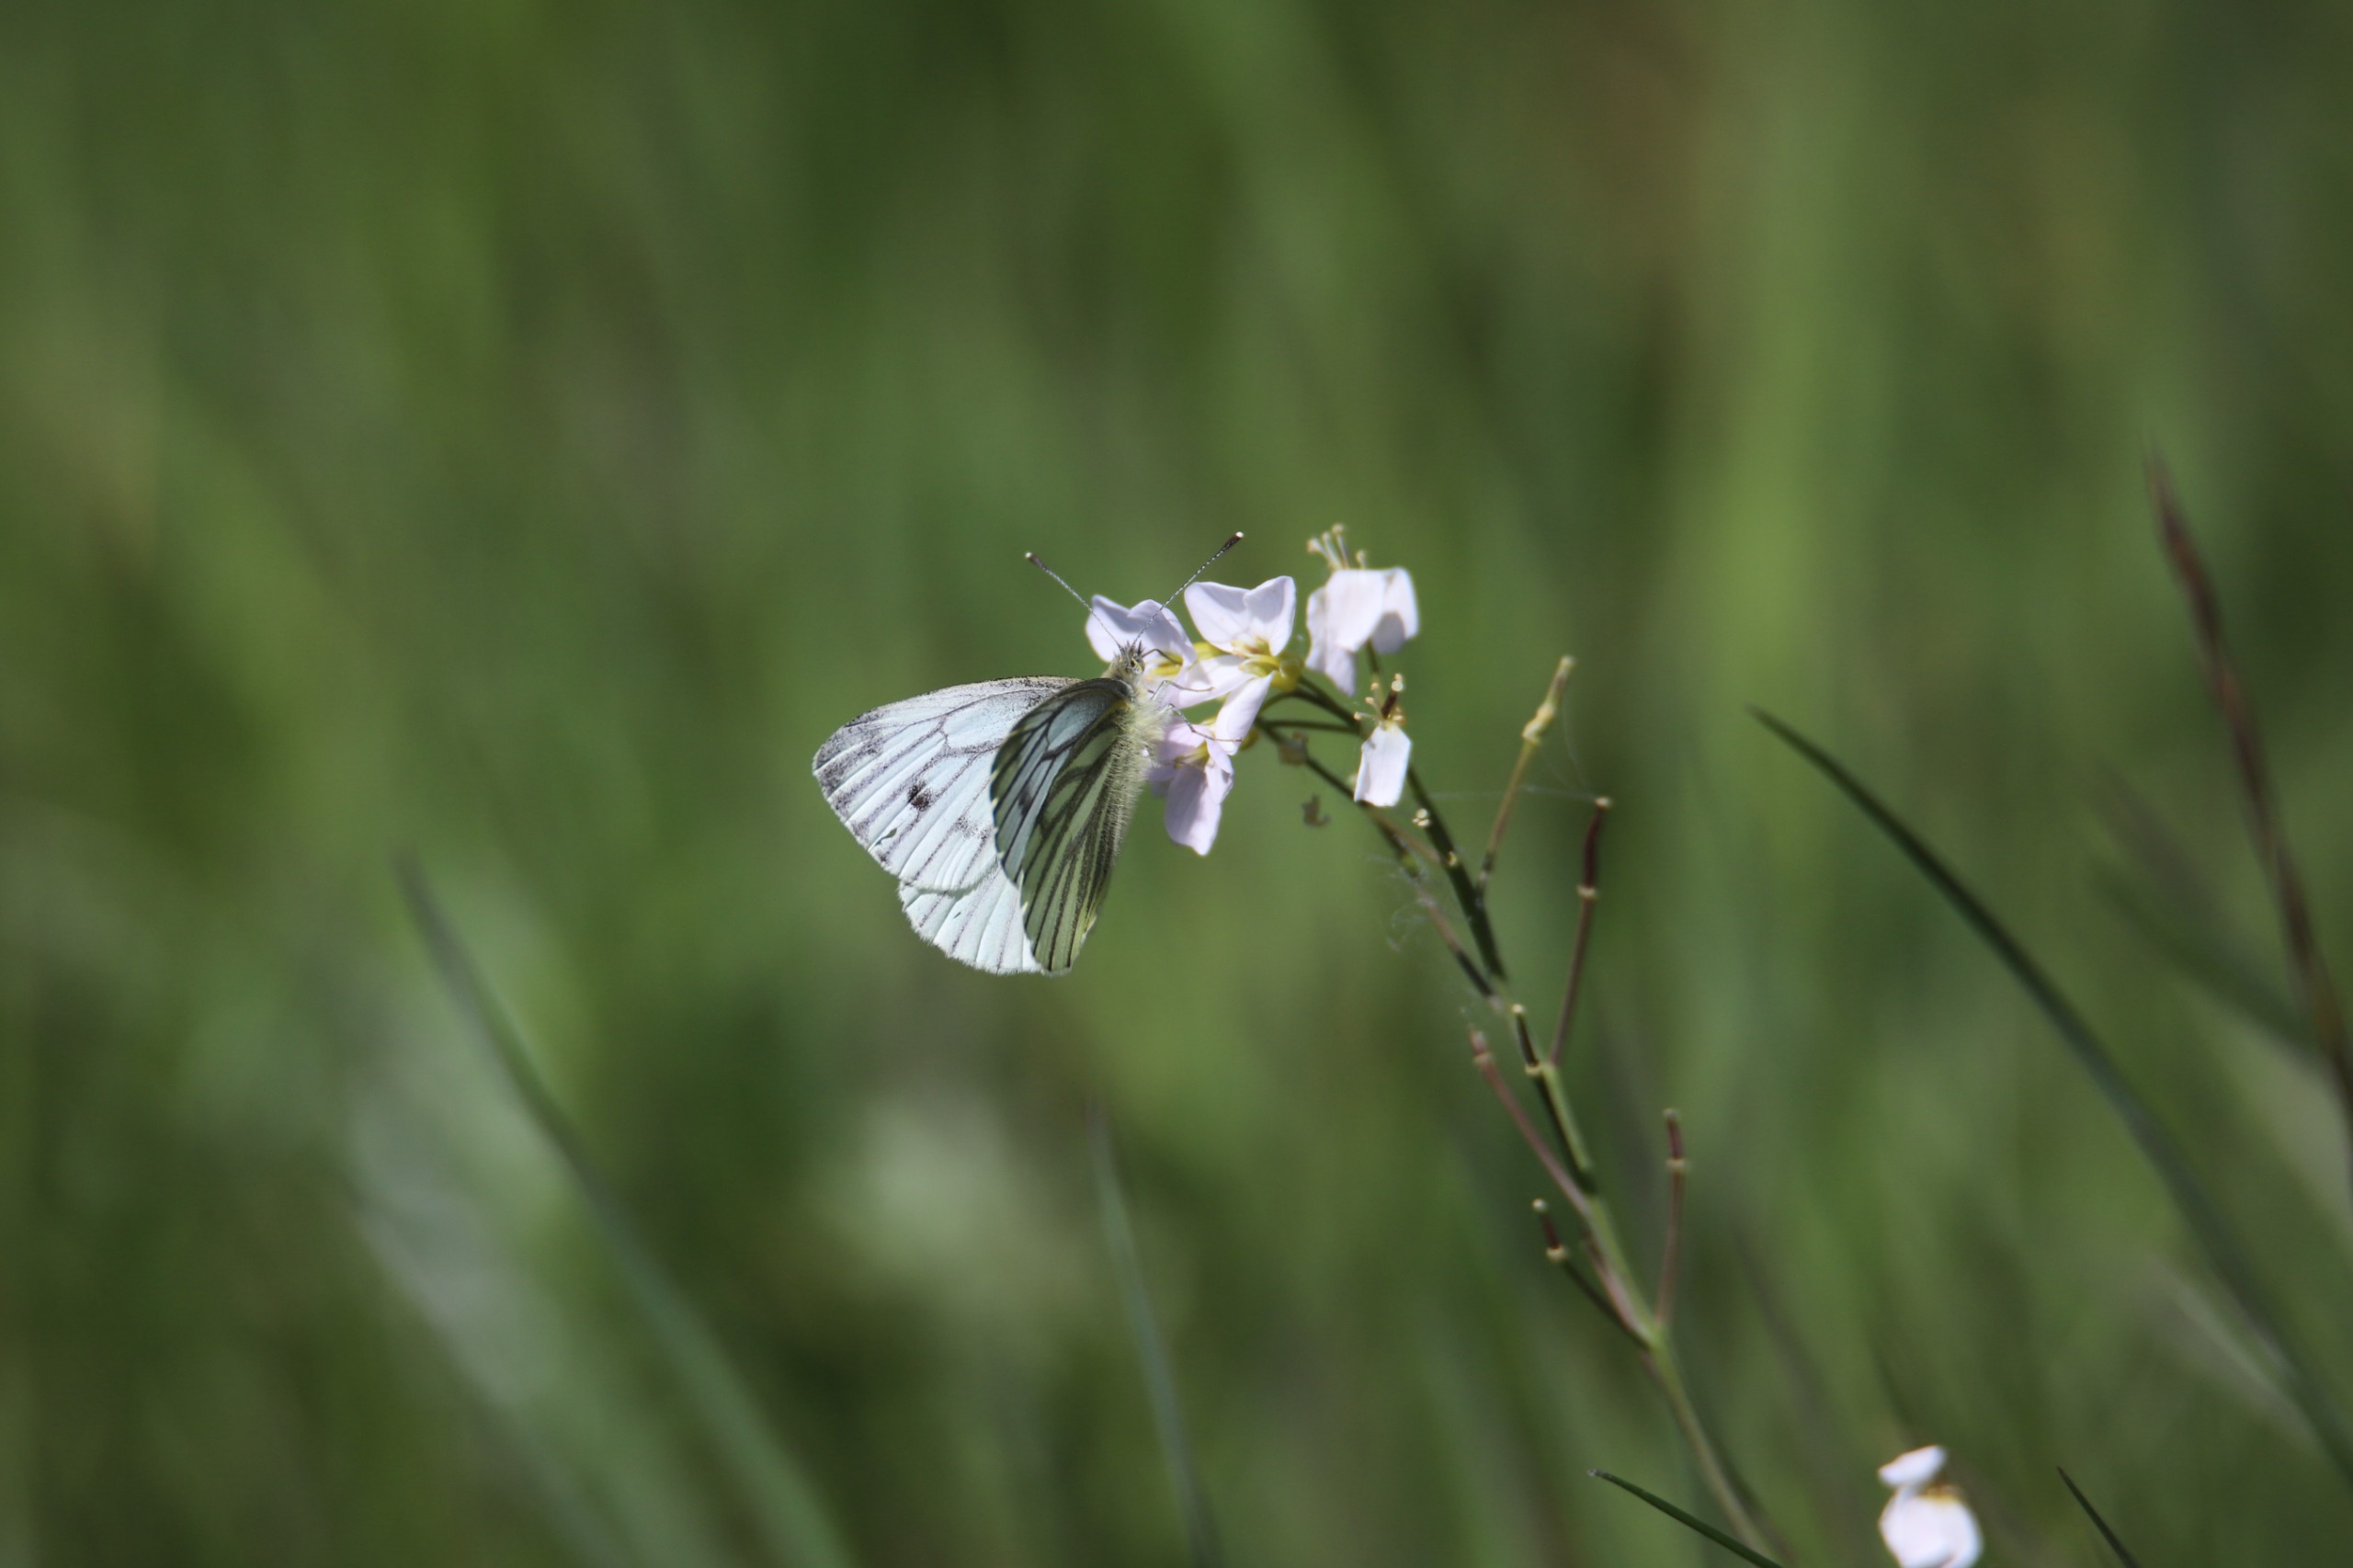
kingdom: Animalia
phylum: Arthropoda
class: Insecta
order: Lepidoptera
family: Pieridae
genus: Pieris
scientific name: Pieris napi
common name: Grønåret kålsommerfugl
